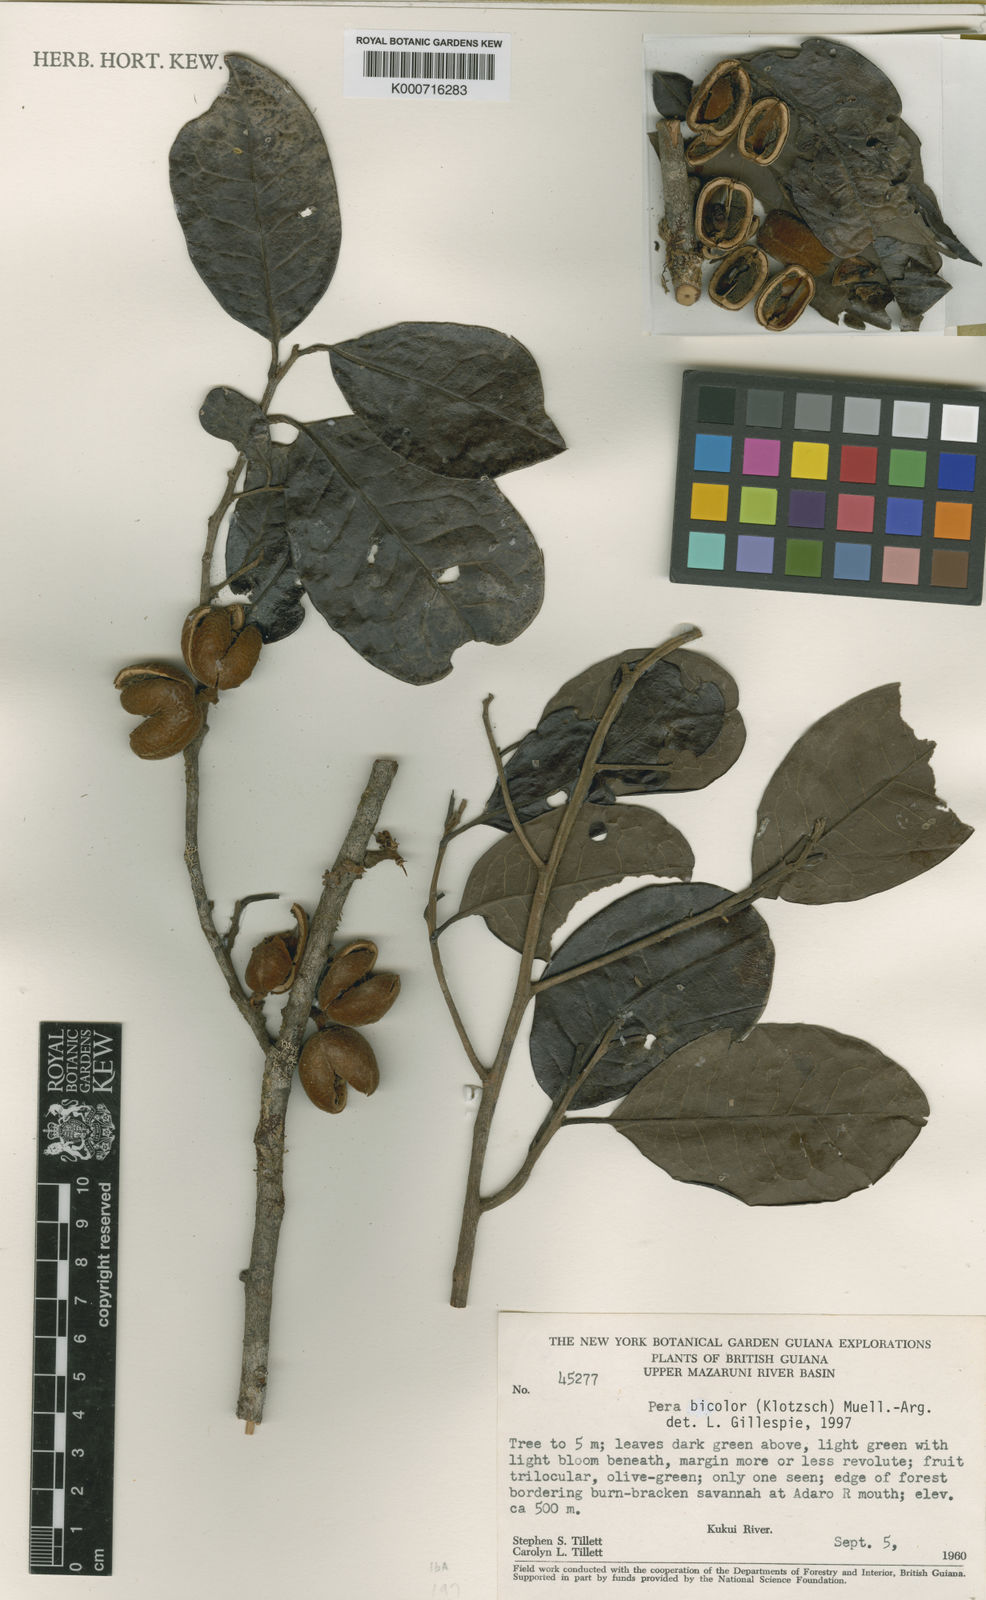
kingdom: Plantae
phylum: Tracheophyta
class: Magnoliopsida
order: Malpighiales
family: Peraceae
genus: Pera
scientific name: Pera
